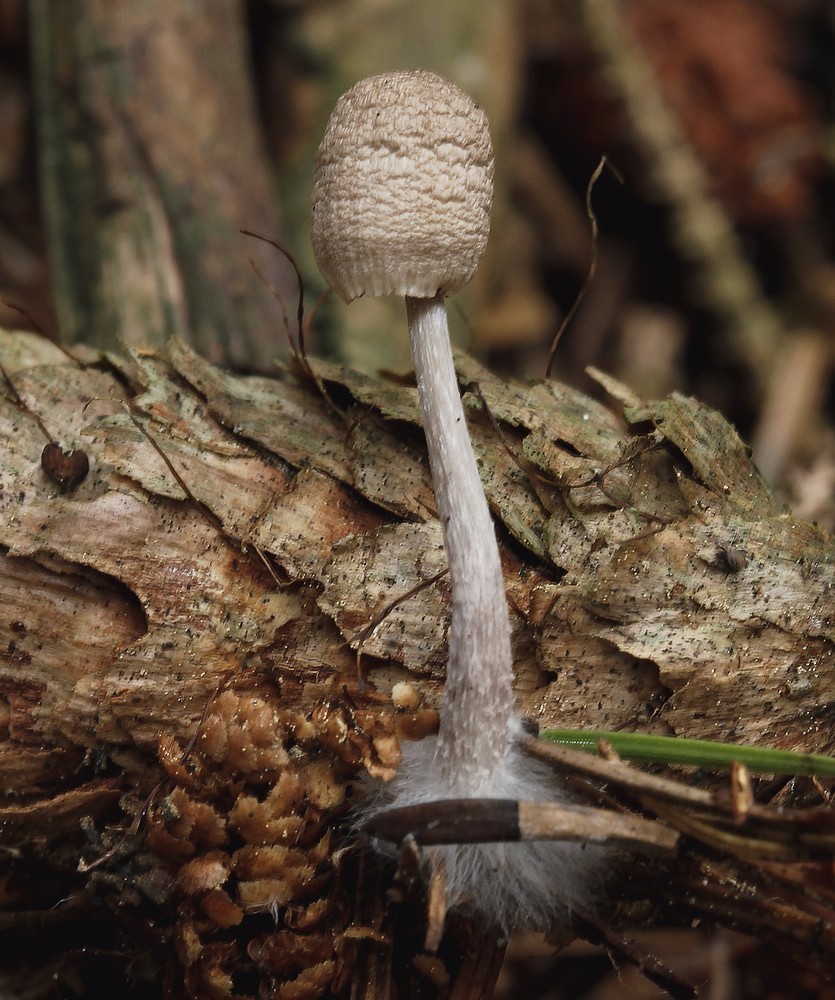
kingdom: Fungi
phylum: Basidiomycota
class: Agaricomycetes
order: Agaricales
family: Mycenaceae
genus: Mycena
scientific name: Mycena polygramma
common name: mangestribet huesvamp
